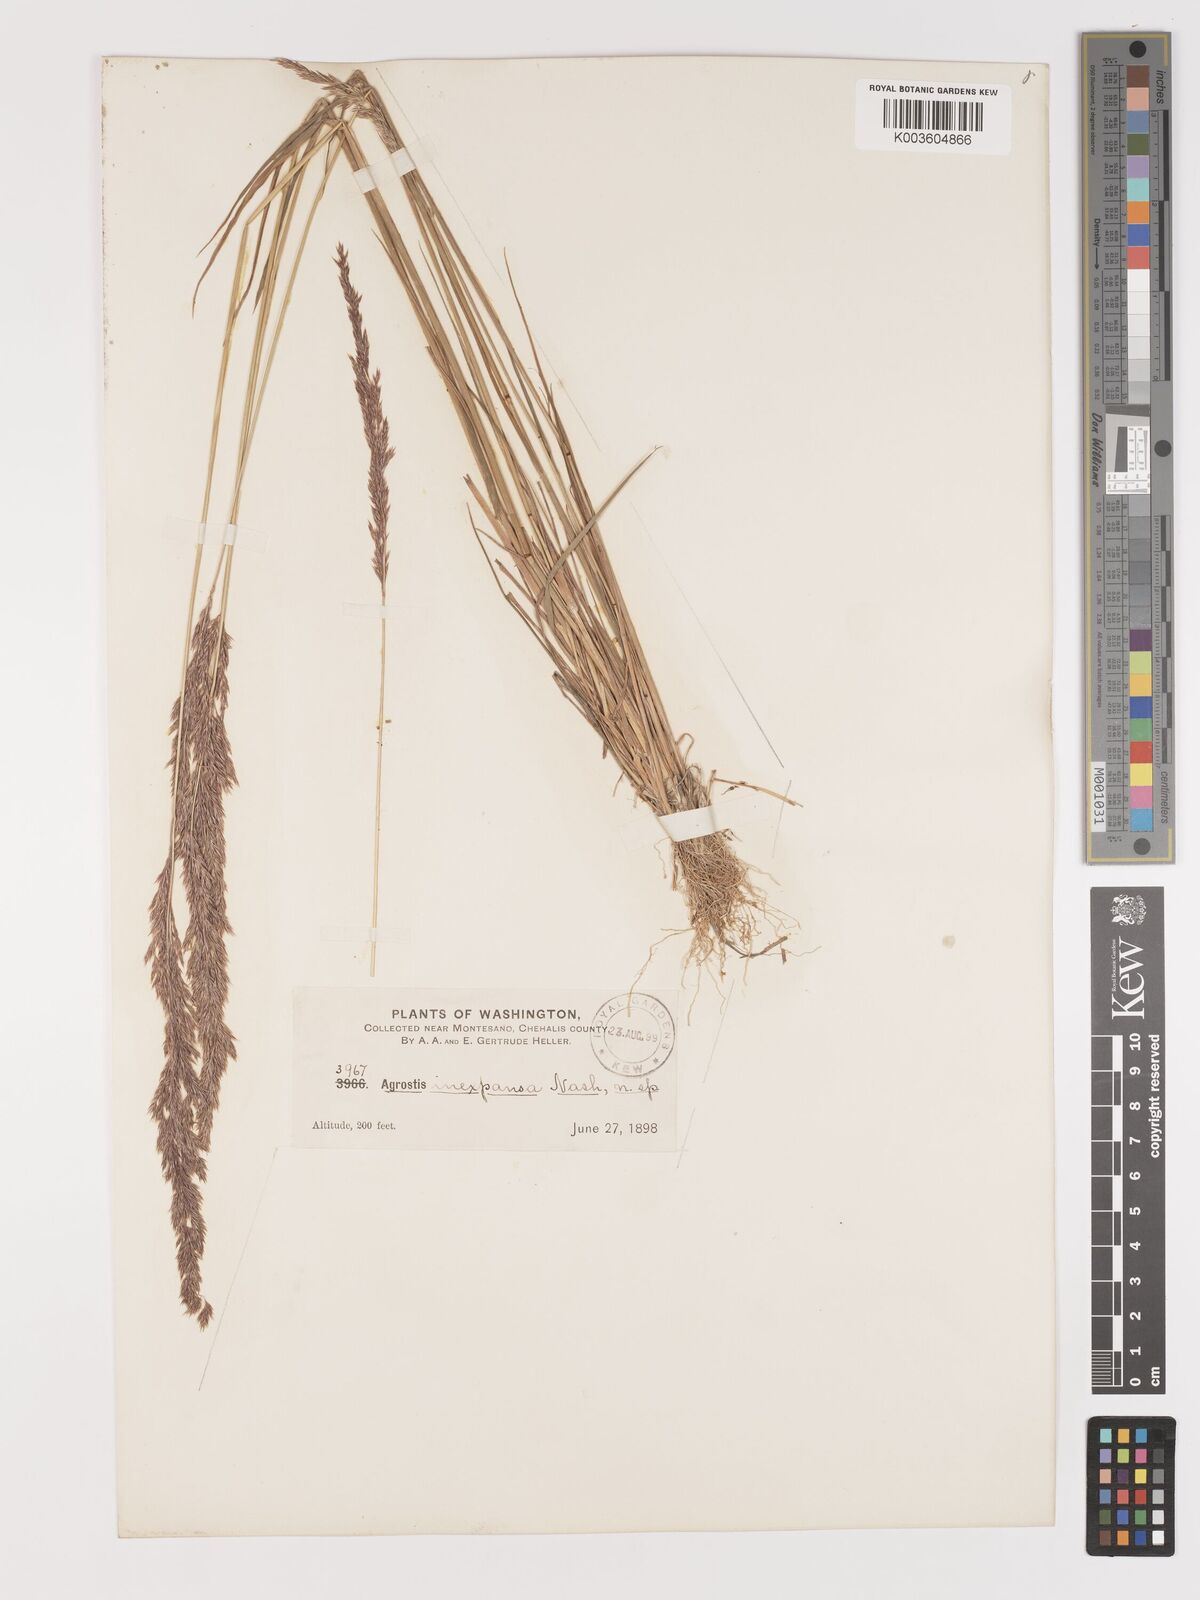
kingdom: Plantae
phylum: Tracheophyta
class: Liliopsida
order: Poales
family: Poaceae
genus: Agrostis
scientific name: Agrostis
